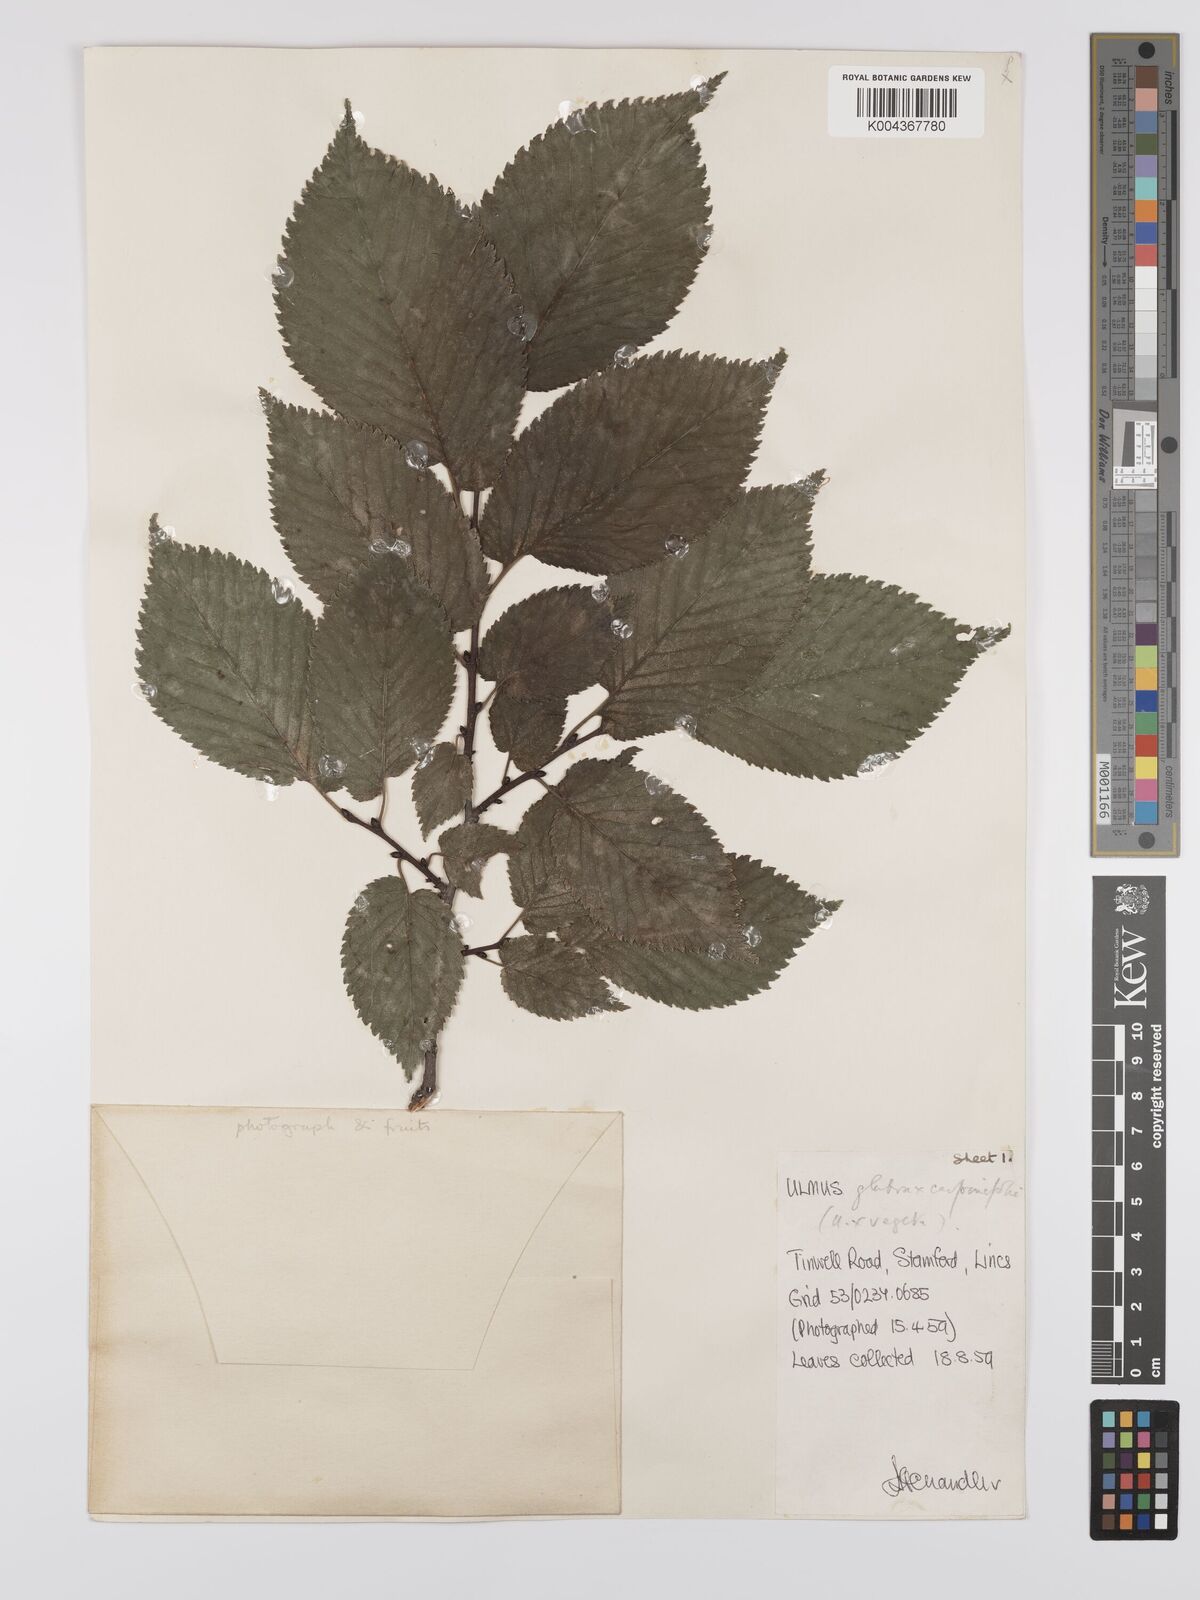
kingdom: Plantae
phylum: Tracheophyta
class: Magnoliopsida
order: Rosales
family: Ulmaceae
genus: Ulmus
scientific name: Ulmus
